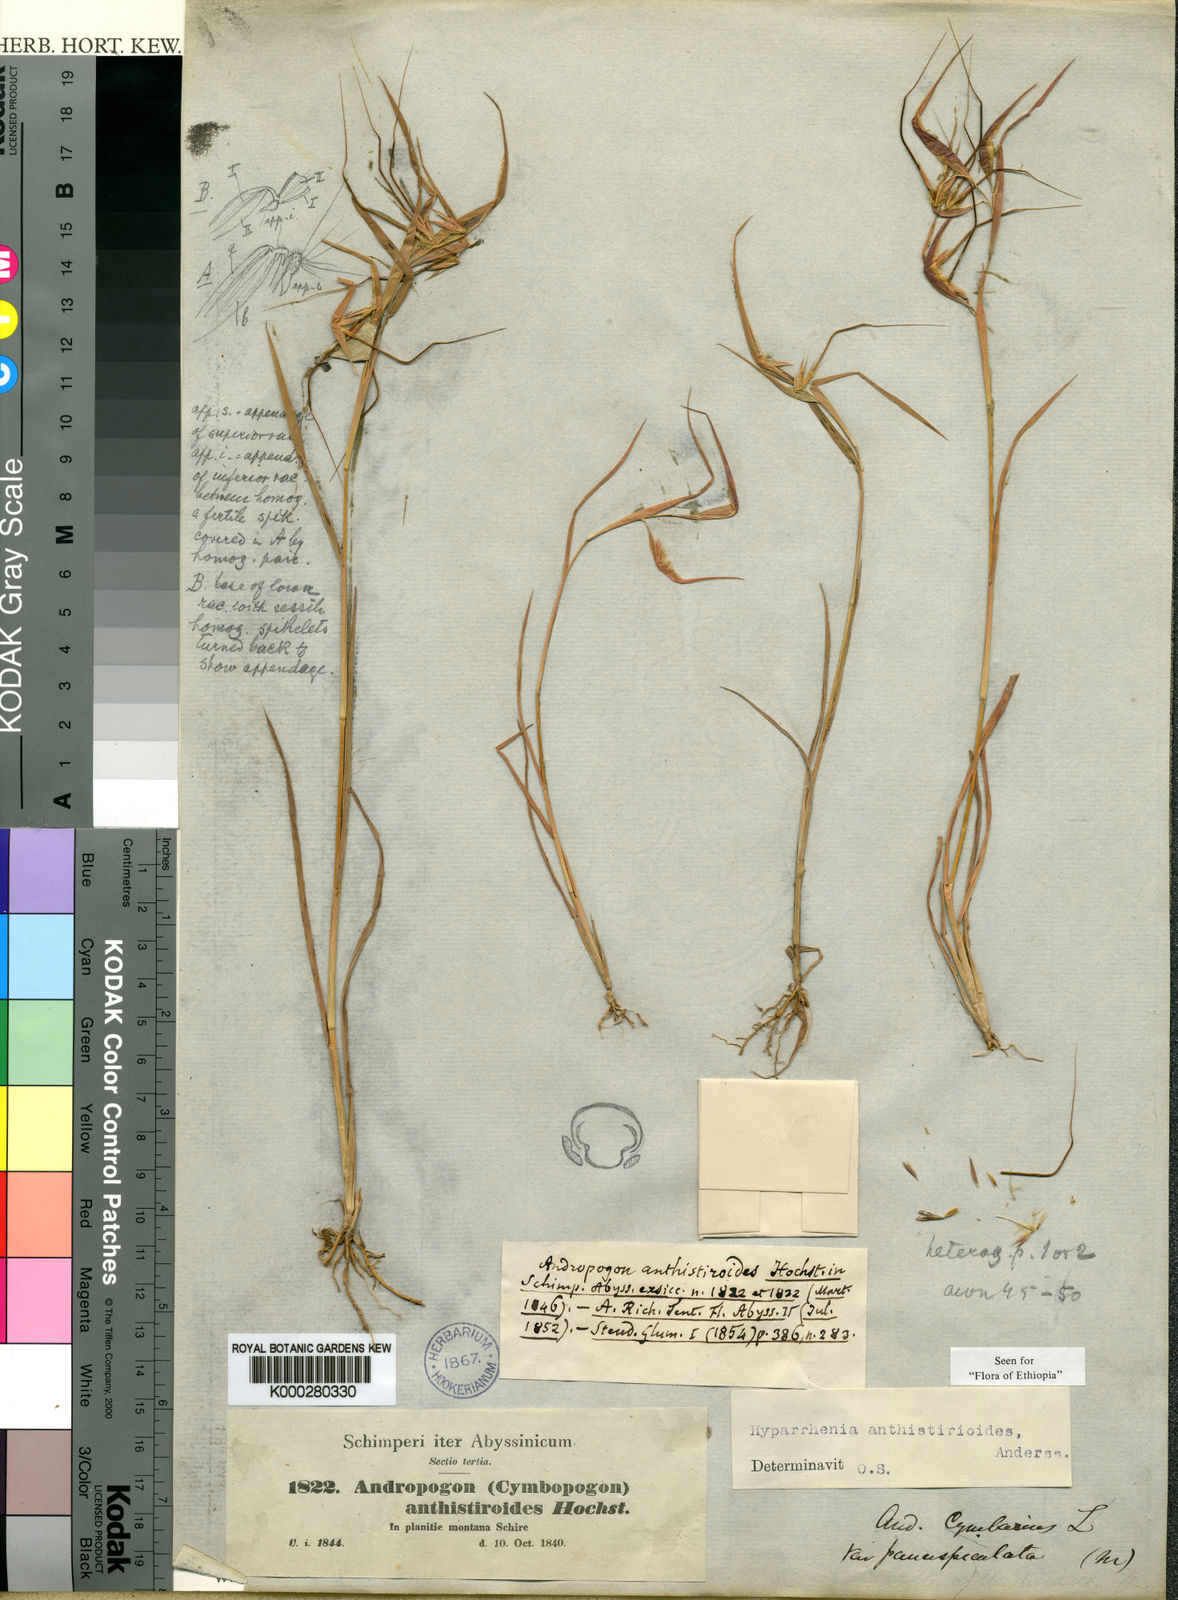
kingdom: Plantae
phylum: Tracheophyta
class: Liliopsida
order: Poales
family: Poaceae
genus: Hyparrhenia
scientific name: Hyparrhenia
